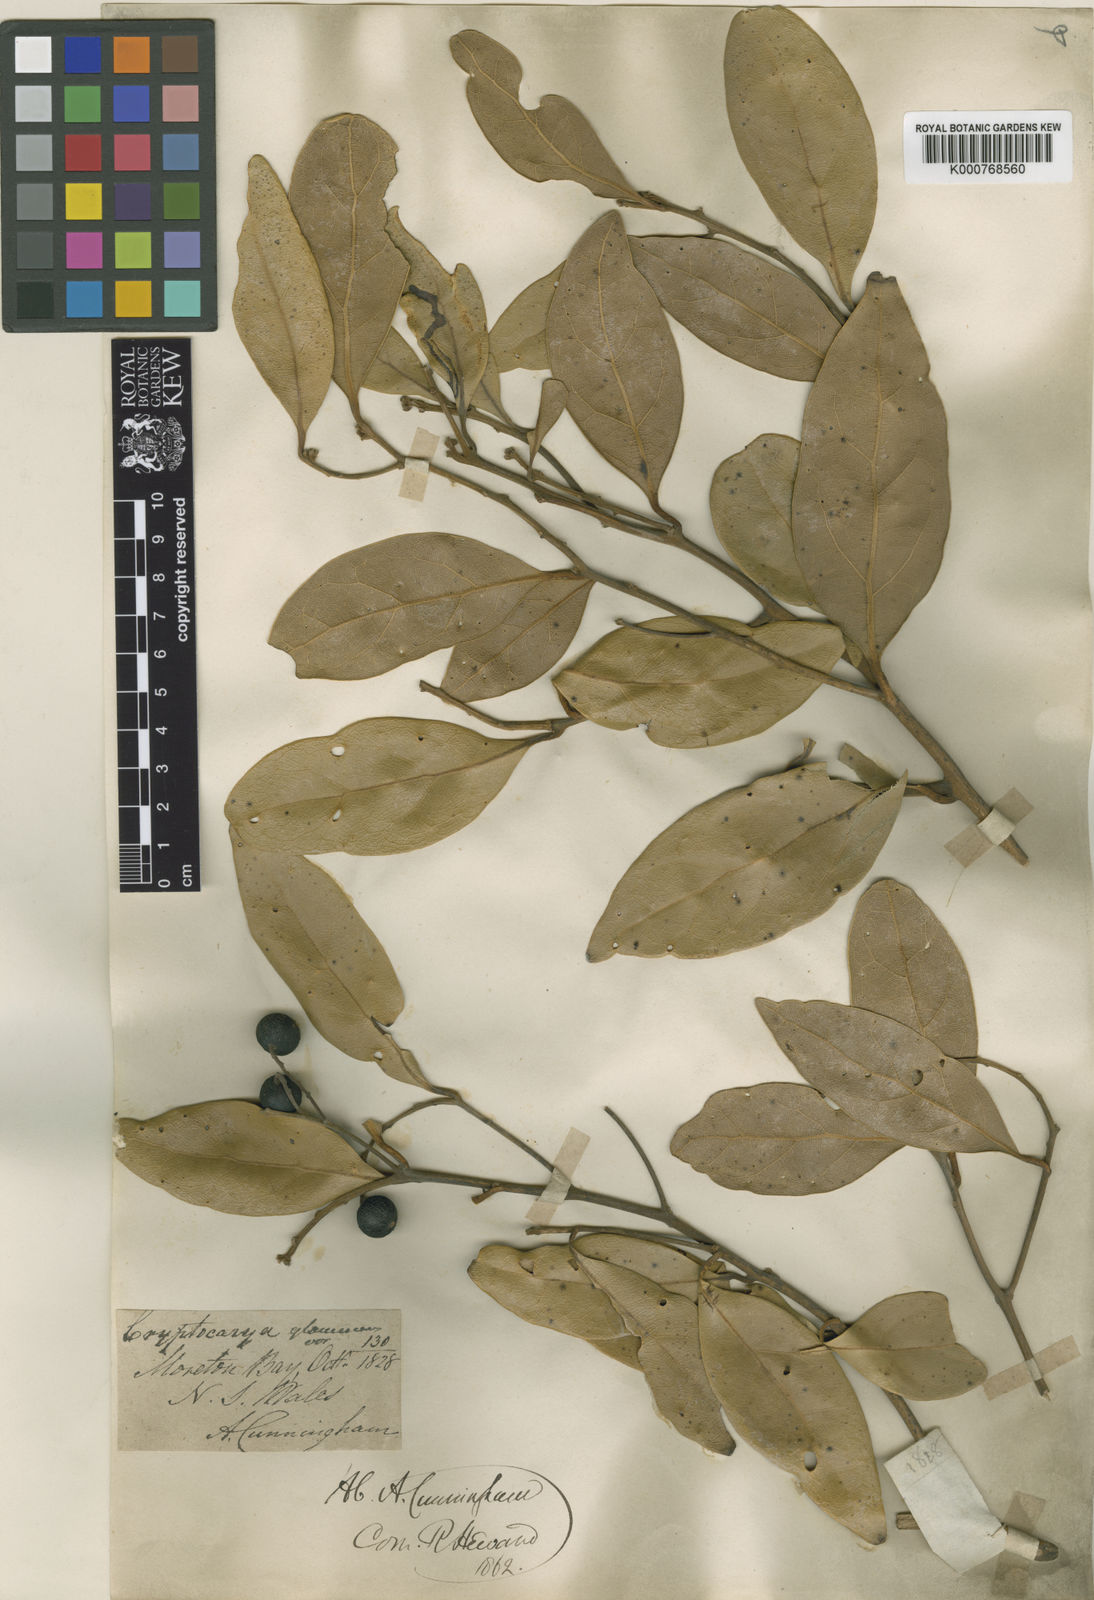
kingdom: Plantae
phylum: Tracheophyta
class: Magnoliopsida
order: Laurales
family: Lauraceae
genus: Cryptocarya
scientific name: Cryptocarya foetida
